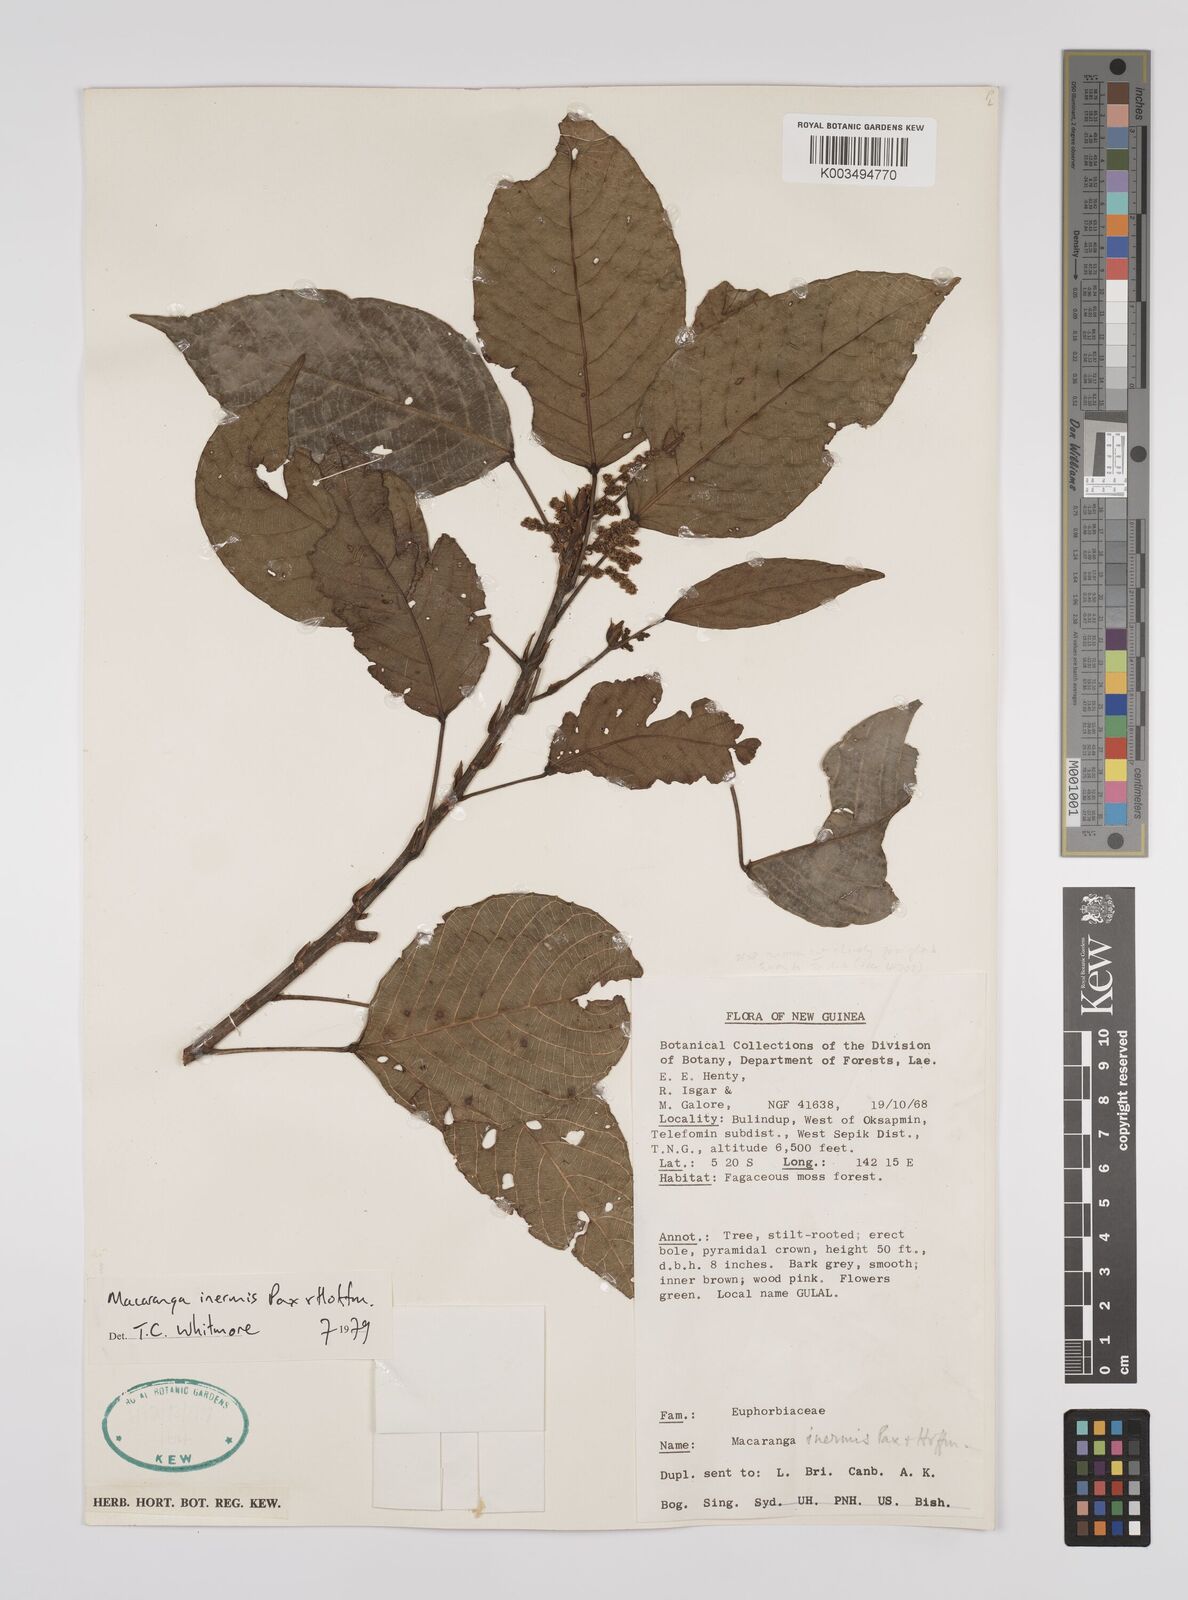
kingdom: Plantae
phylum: Tracheophyta
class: Magnoliopsida
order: Malpighiales
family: Euphorbiaceae
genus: Macaranga
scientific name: Macaranga inermis
